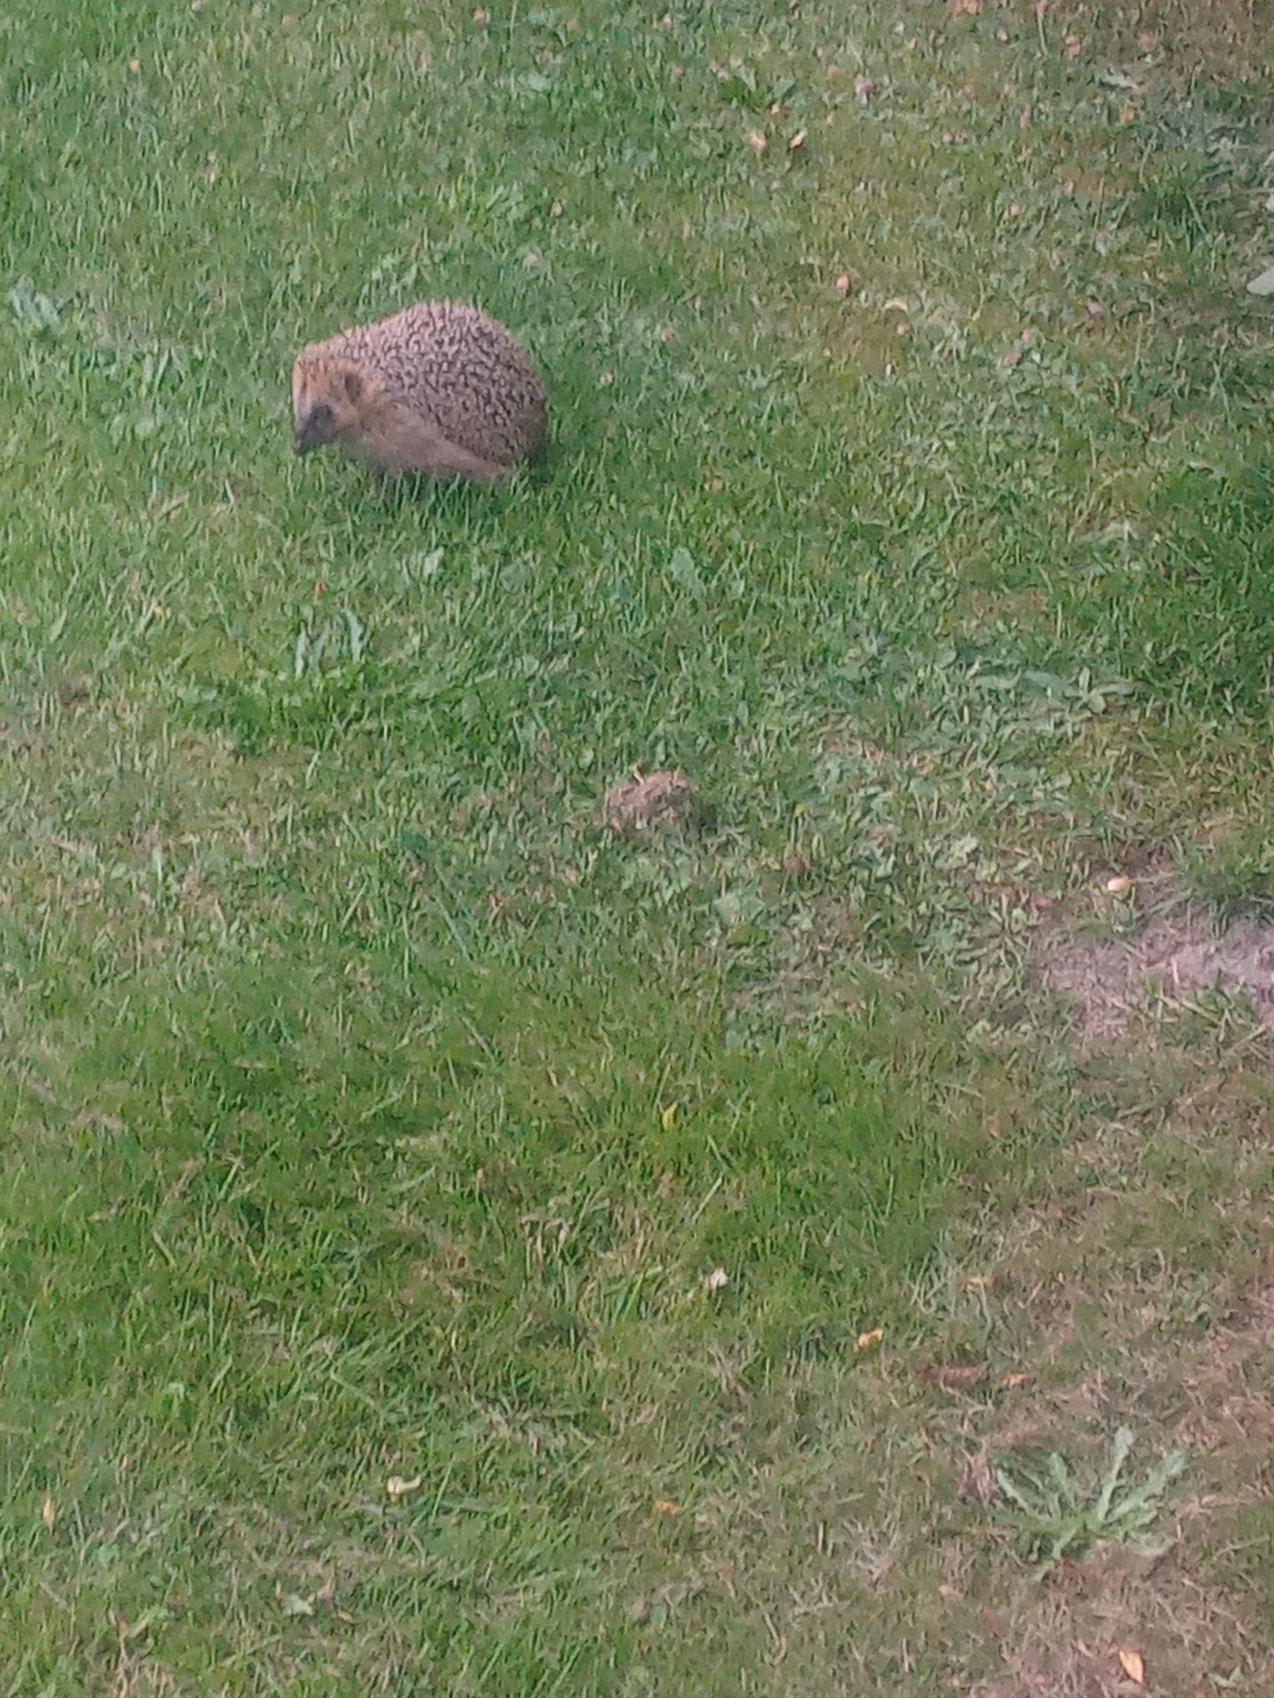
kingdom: Animalia
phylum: Chordata
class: Mammalia
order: Erinaceomorpha
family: Erinaceidae
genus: Erinaceus
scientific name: Erinaceus europaeus
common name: Pindsvin
